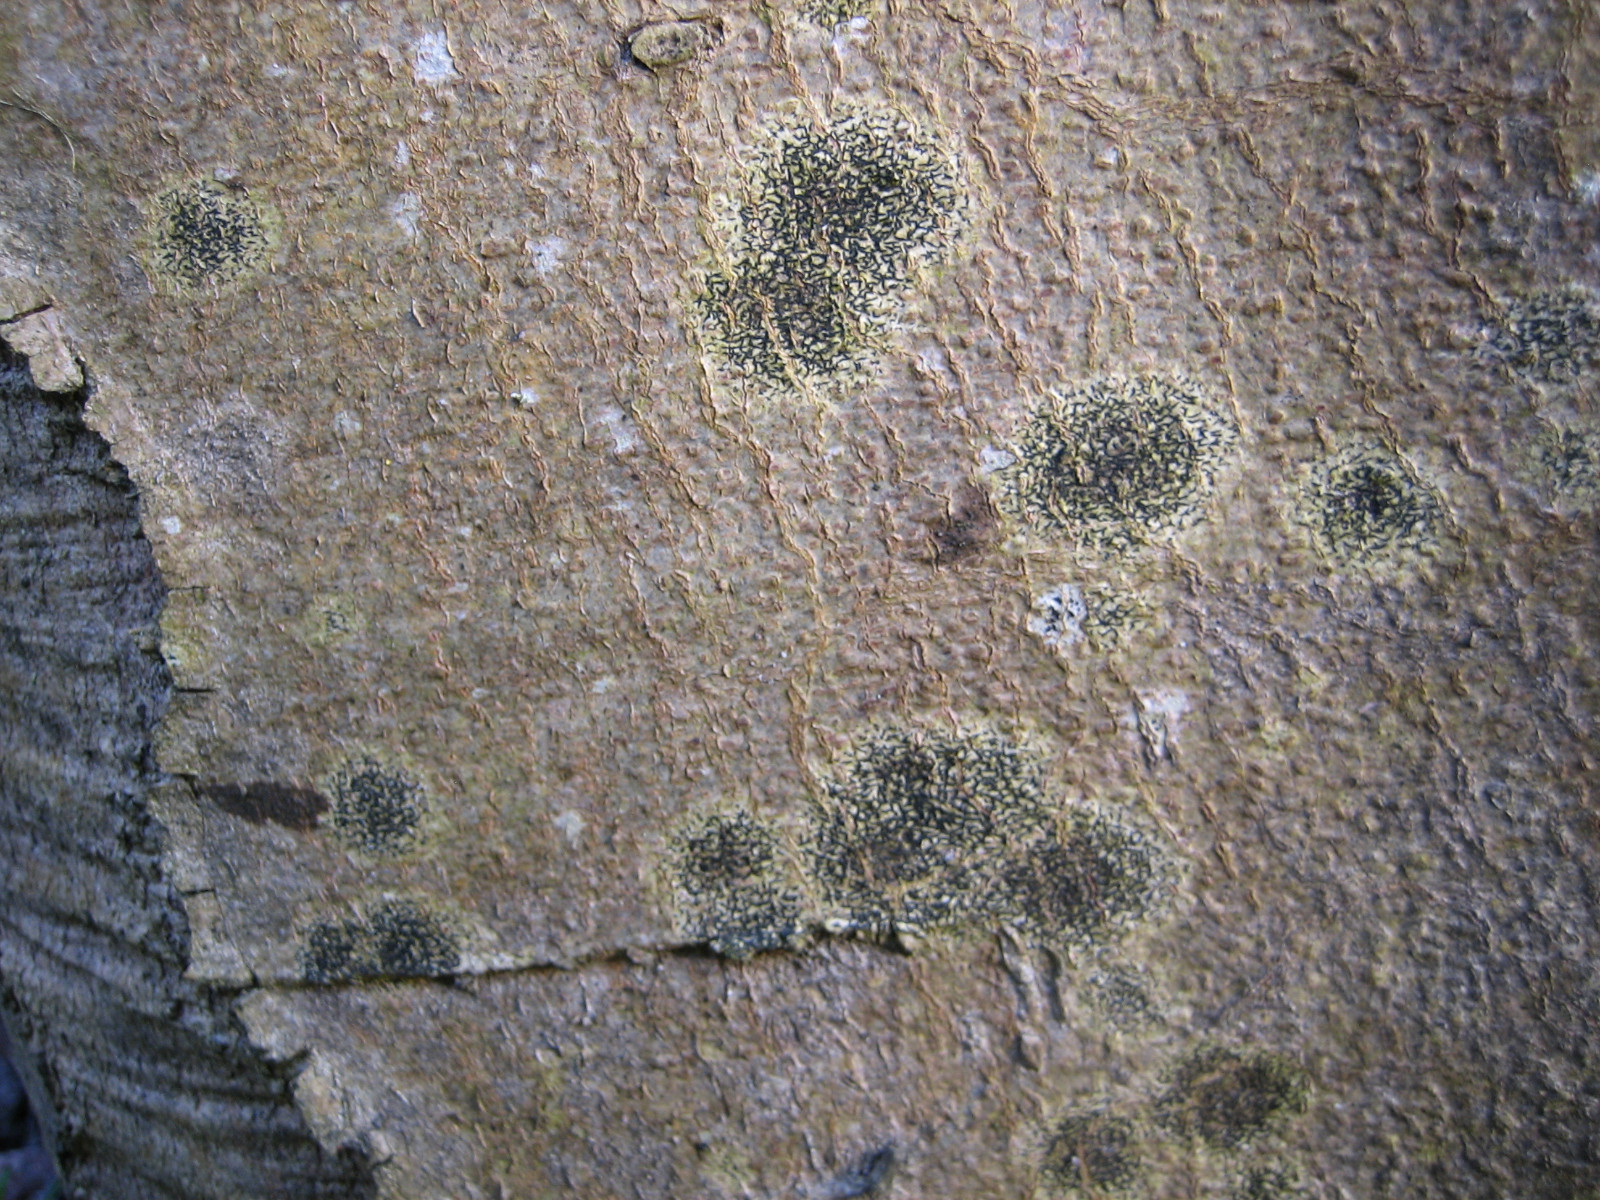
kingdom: Fungi
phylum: Ascomycota
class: Arthoniomycetes
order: Arthoniales
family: Arthoniaceae
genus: Arthonia
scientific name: Arthonia atra
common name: sort bogstavlav
